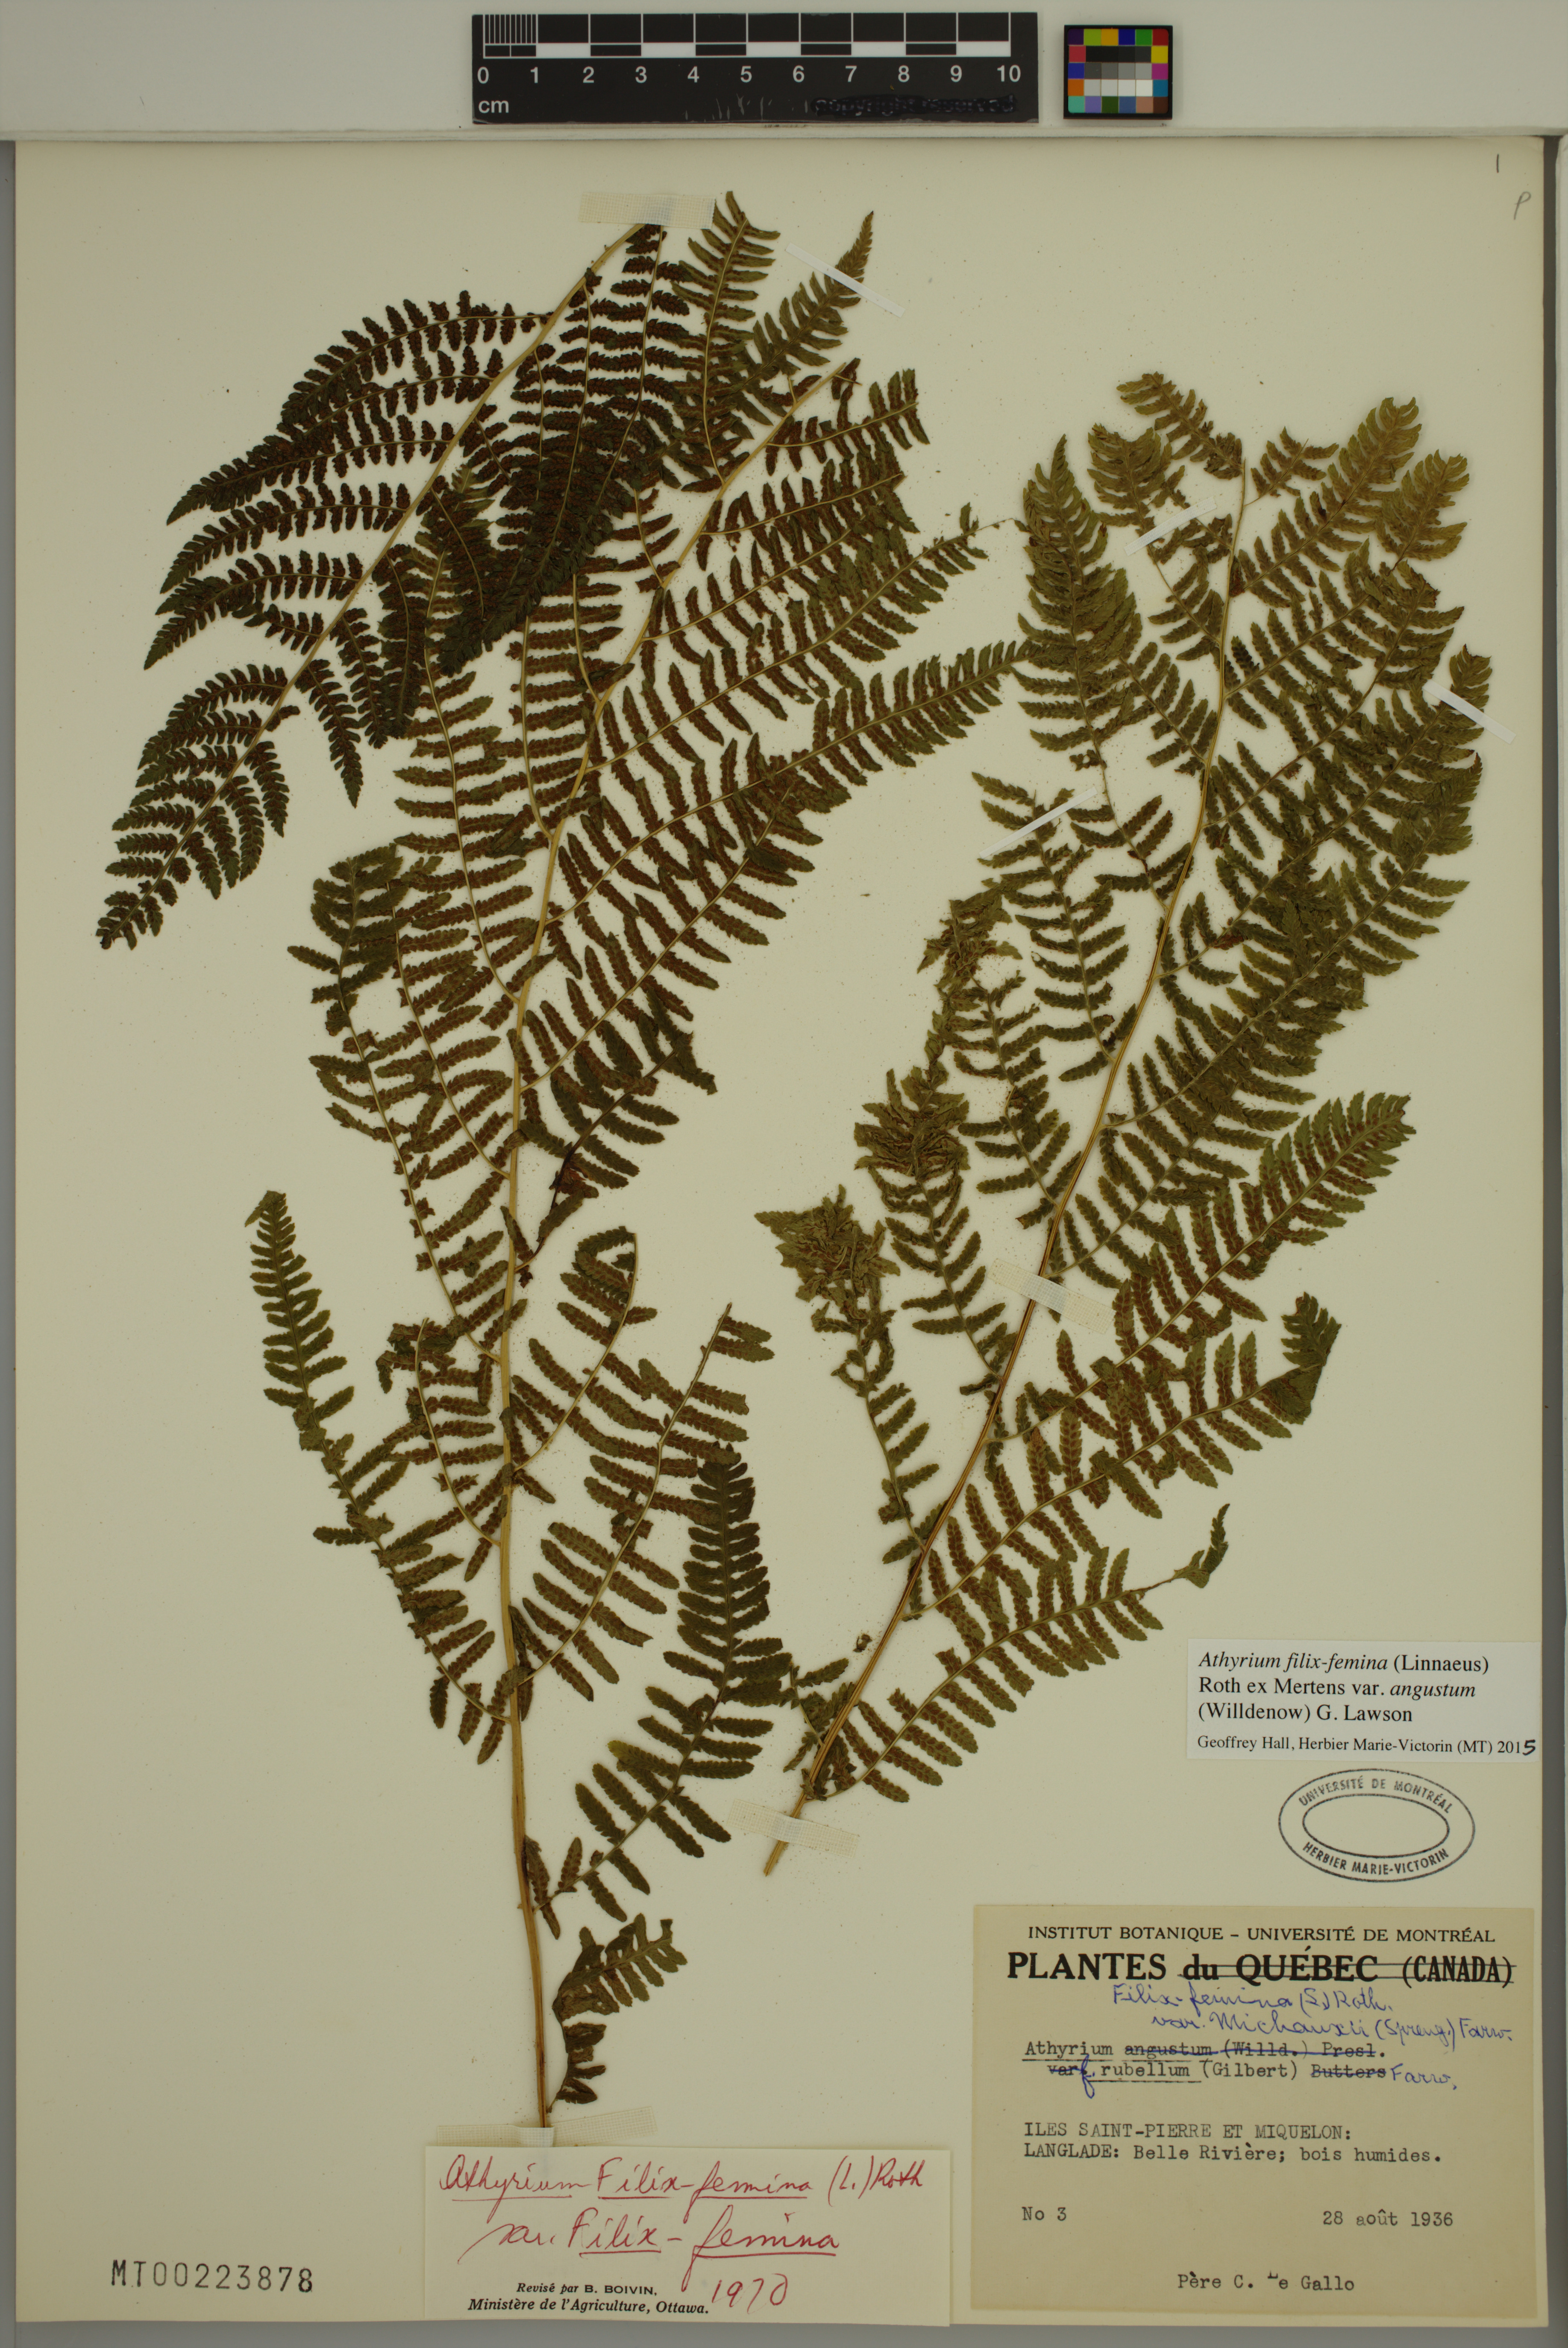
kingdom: Plantae
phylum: Tracheophyta
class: Polypodiopsida
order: Polypodiales
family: Athyriaceae
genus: Athyrium
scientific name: Athyrium angustum
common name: Northern lady fern
